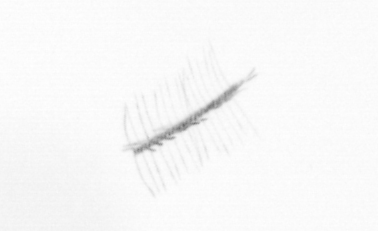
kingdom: Chromista
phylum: Ochrophyta
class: Bacillariophyceae
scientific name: Bacillariophyceae
